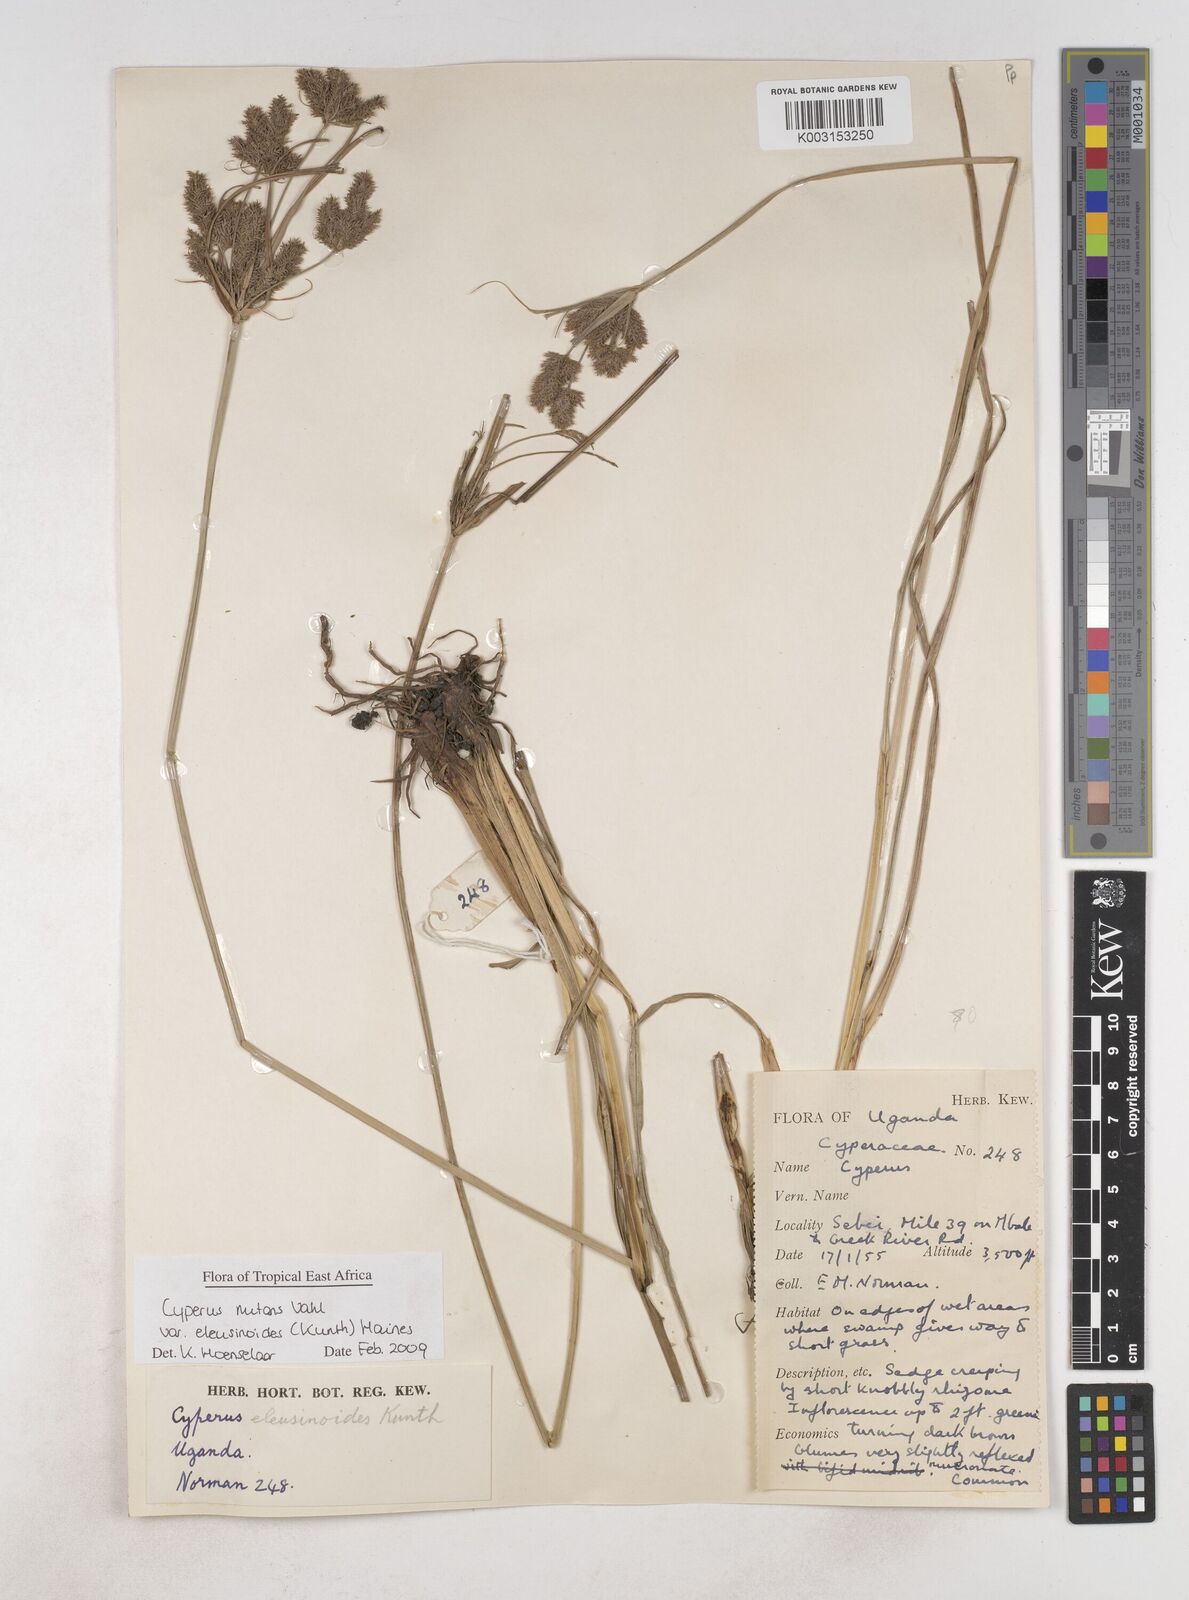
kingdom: Plantae
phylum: Tracheophyta
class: Liliopsida
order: Poales
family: Cyperaceae
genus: Cyperus
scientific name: Cyperus nutans
